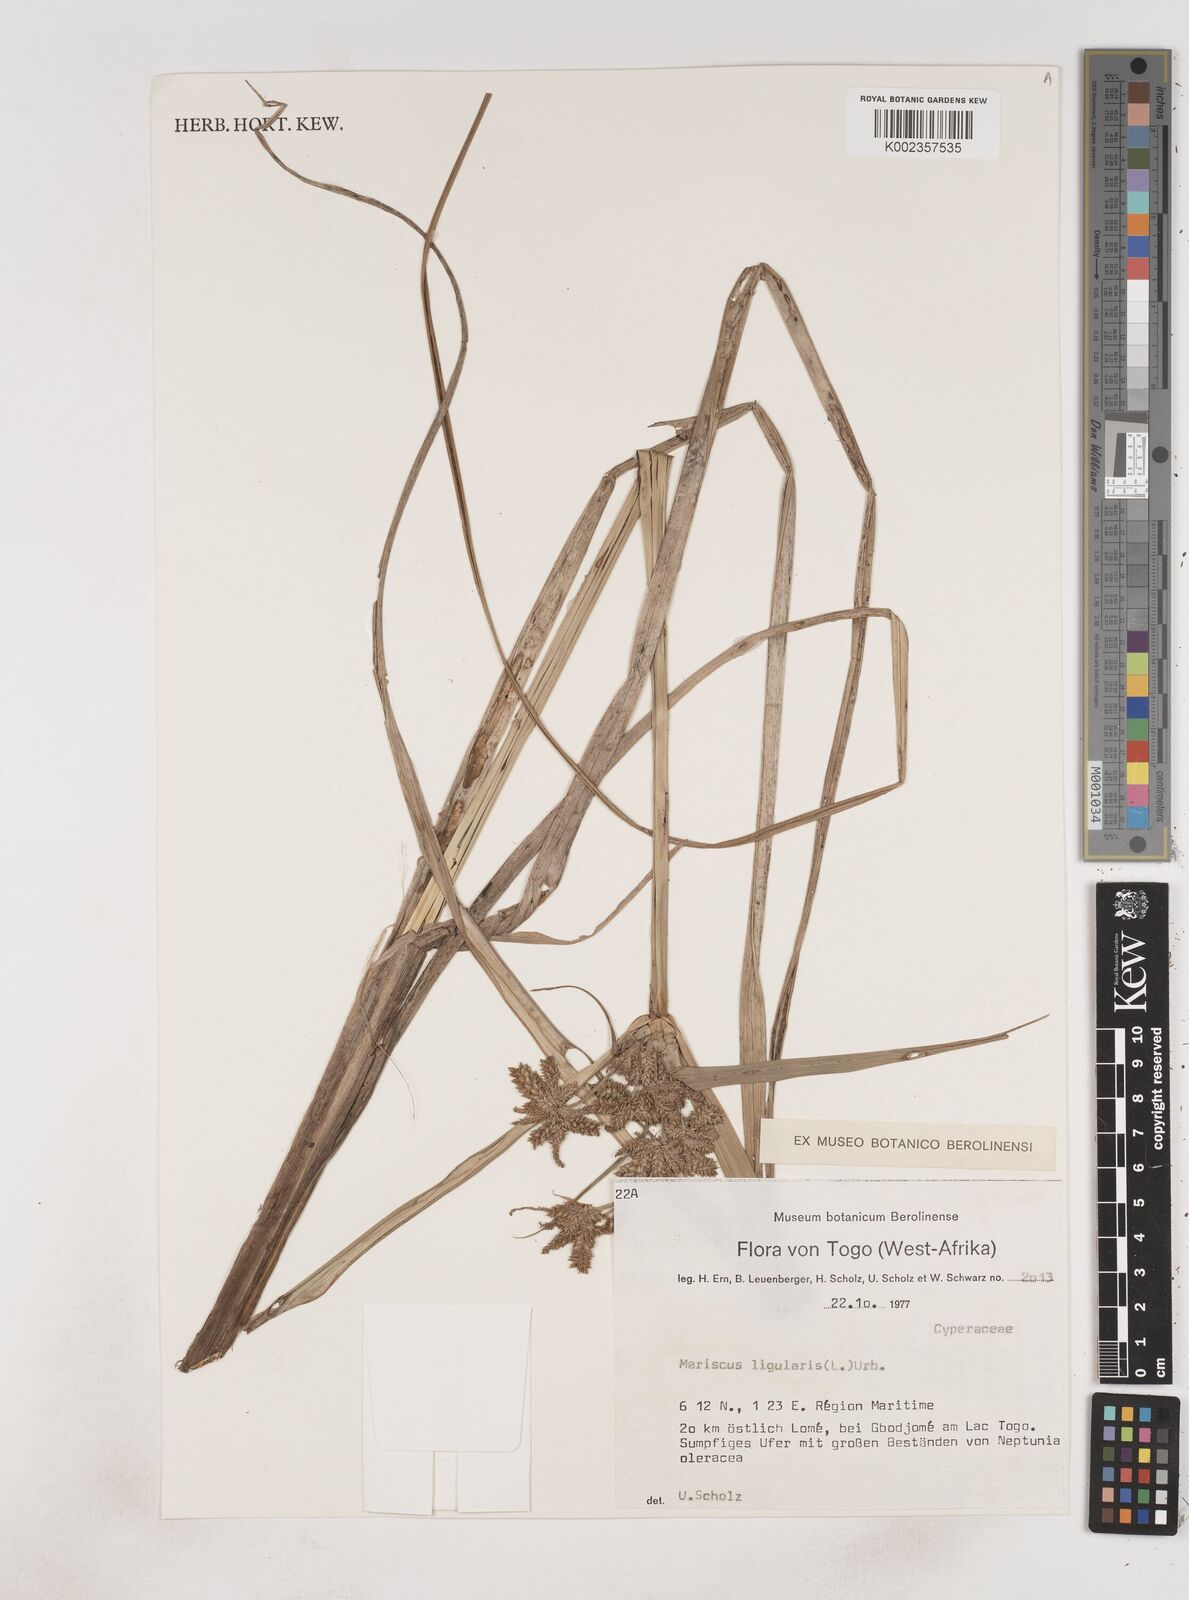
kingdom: Plantae
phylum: Tracheophyta
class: Liliopsida
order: Poales
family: Cyperaceae
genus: Cyperus
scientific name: Cyperus ligularis
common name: Swamp flat sedge
